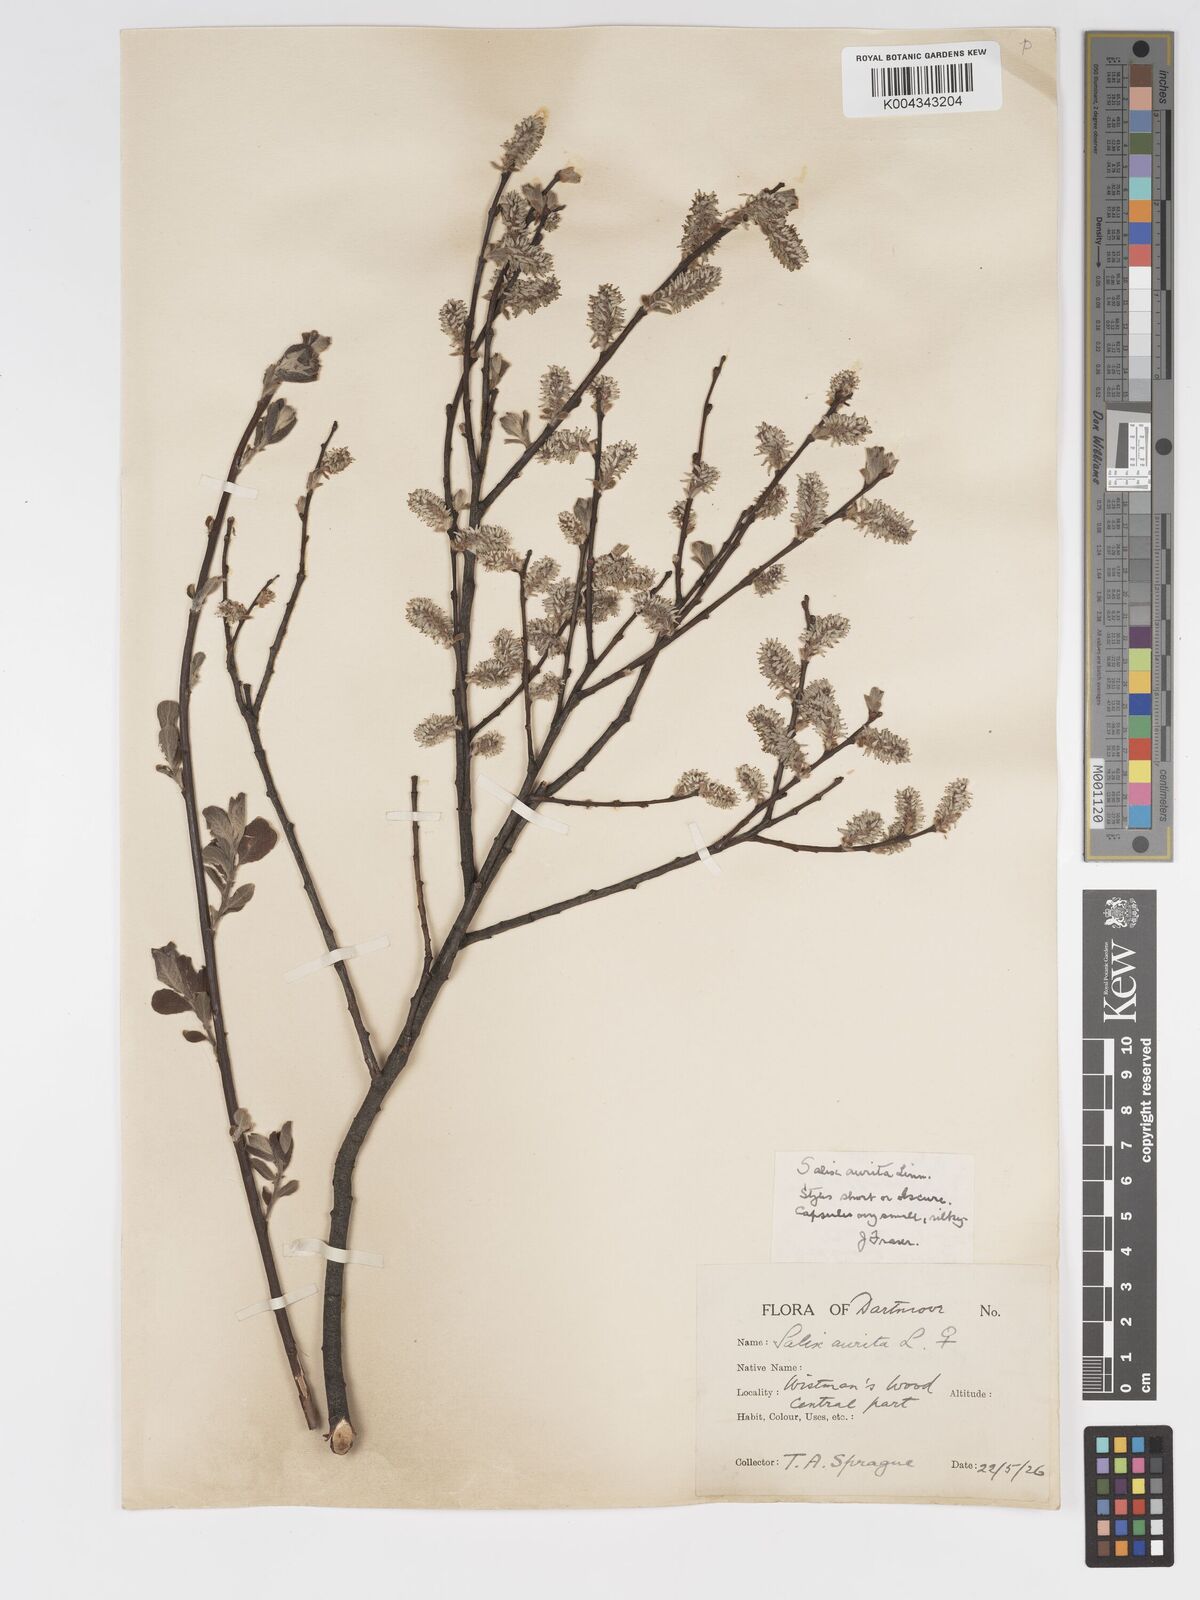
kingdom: Plantae
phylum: Tracheophyta
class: Magnoliopsida
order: Malpighiales
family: Salicaceae
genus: Salix
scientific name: Salix aurita
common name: Eared willow
